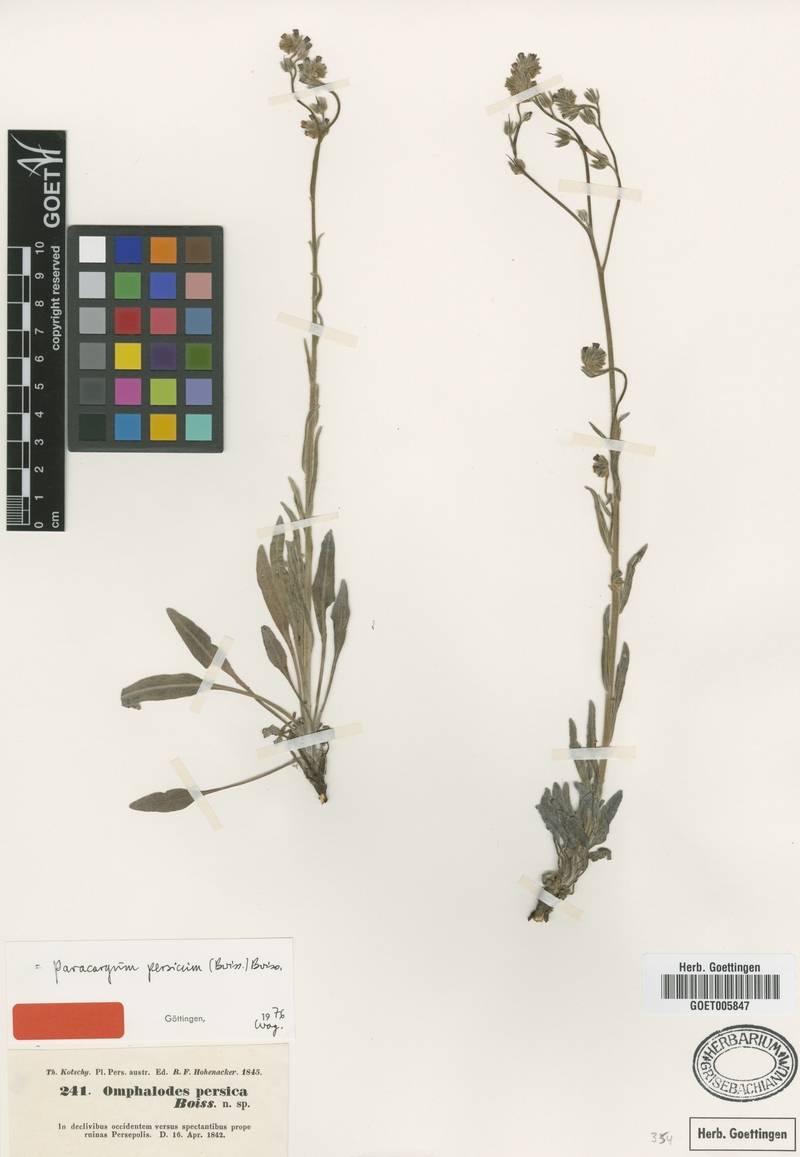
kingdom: Plantae
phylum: Tracheophyta
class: Magnoliopsida
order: Boraginales
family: Boraginaceae
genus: Paracaryum
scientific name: Paracaryum persicum
